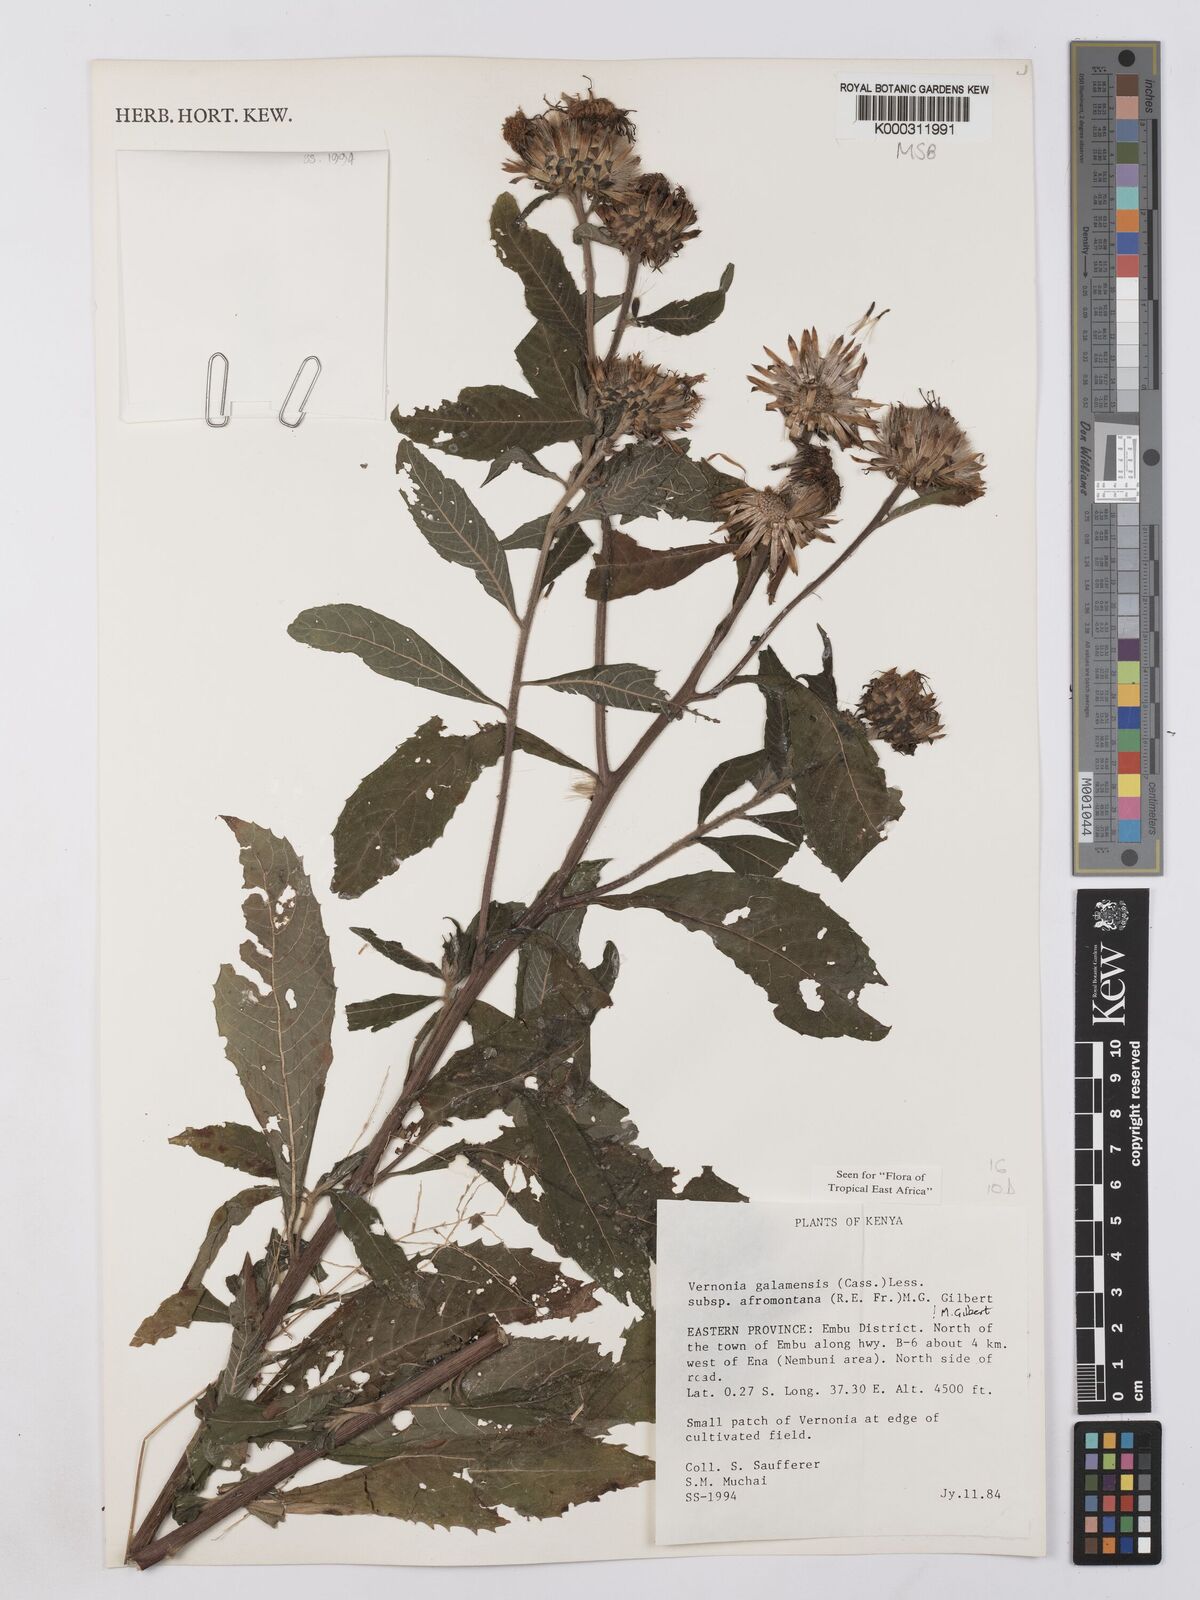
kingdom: Plantae
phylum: Tracheophyta
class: Magnoliopsida
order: Asterales
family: Asteraceae
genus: Vernonia
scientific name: Vernonia galamensis
